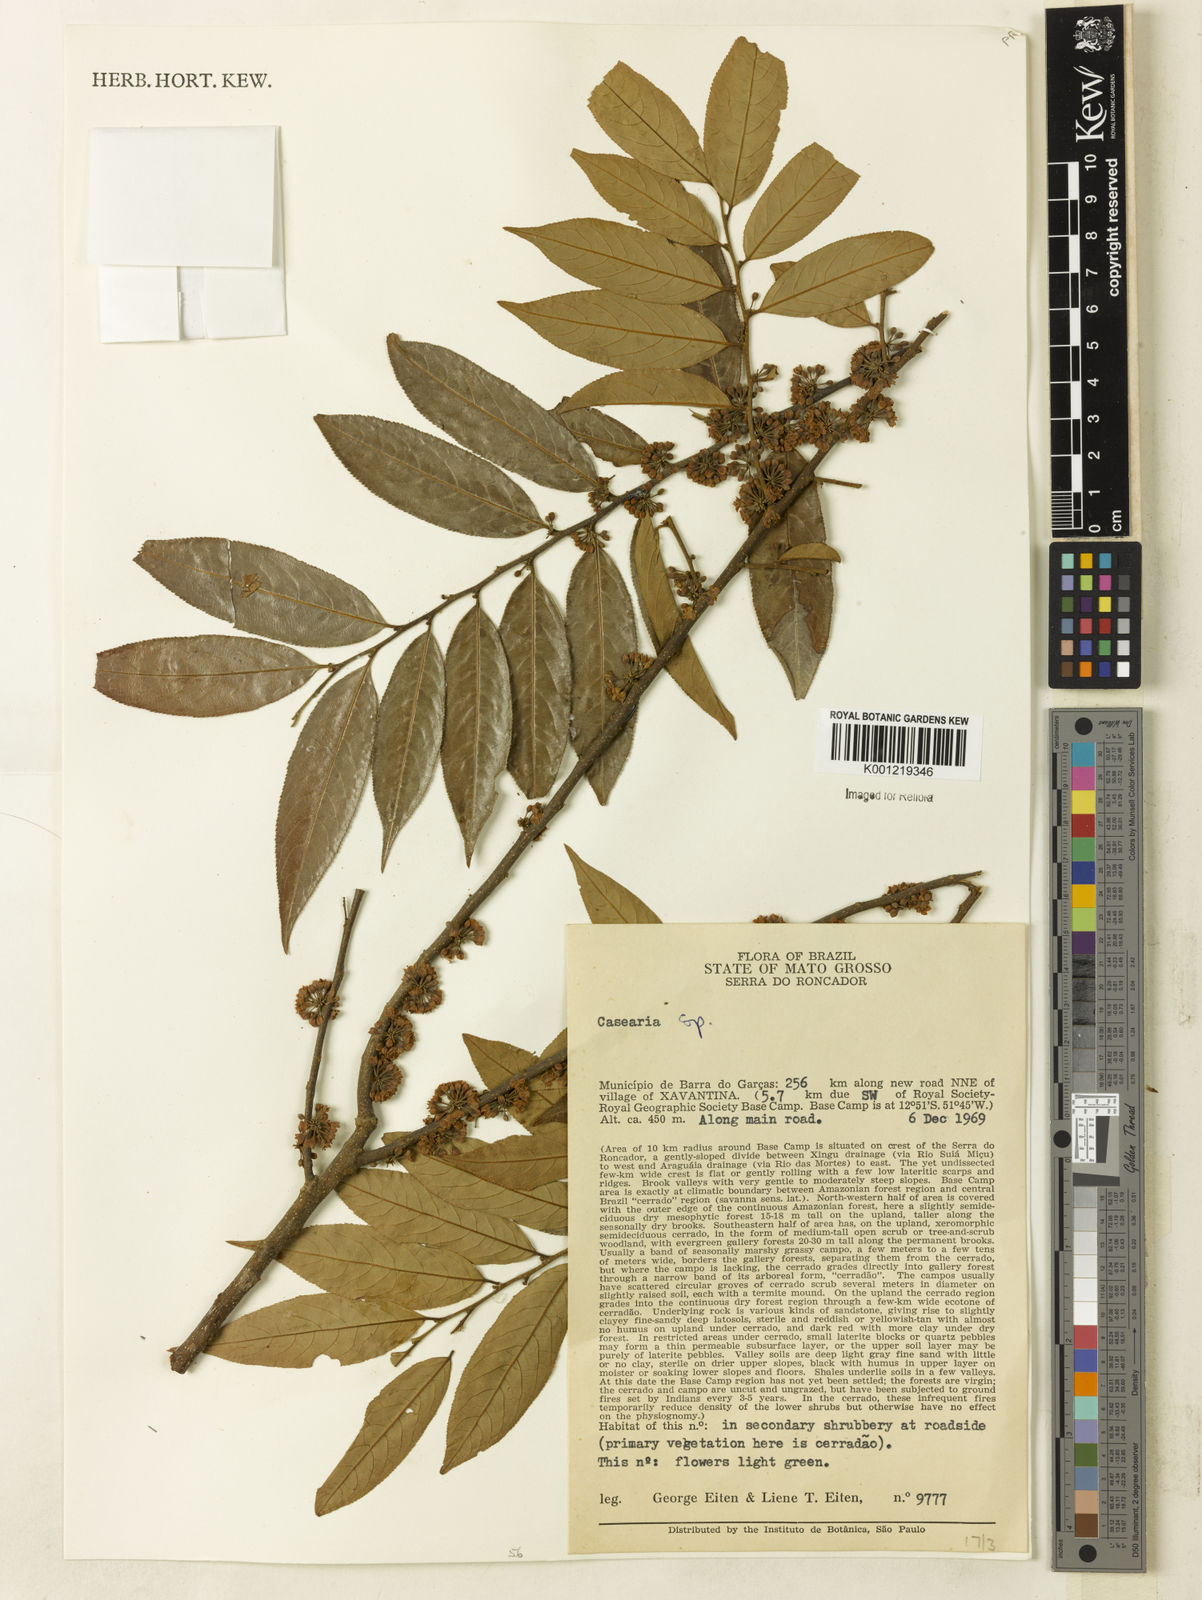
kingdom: Plantae
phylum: Tracheophyta
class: Magnoliopsida
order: Malpighiales
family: Salicaceae
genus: Casearia
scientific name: Casearia
